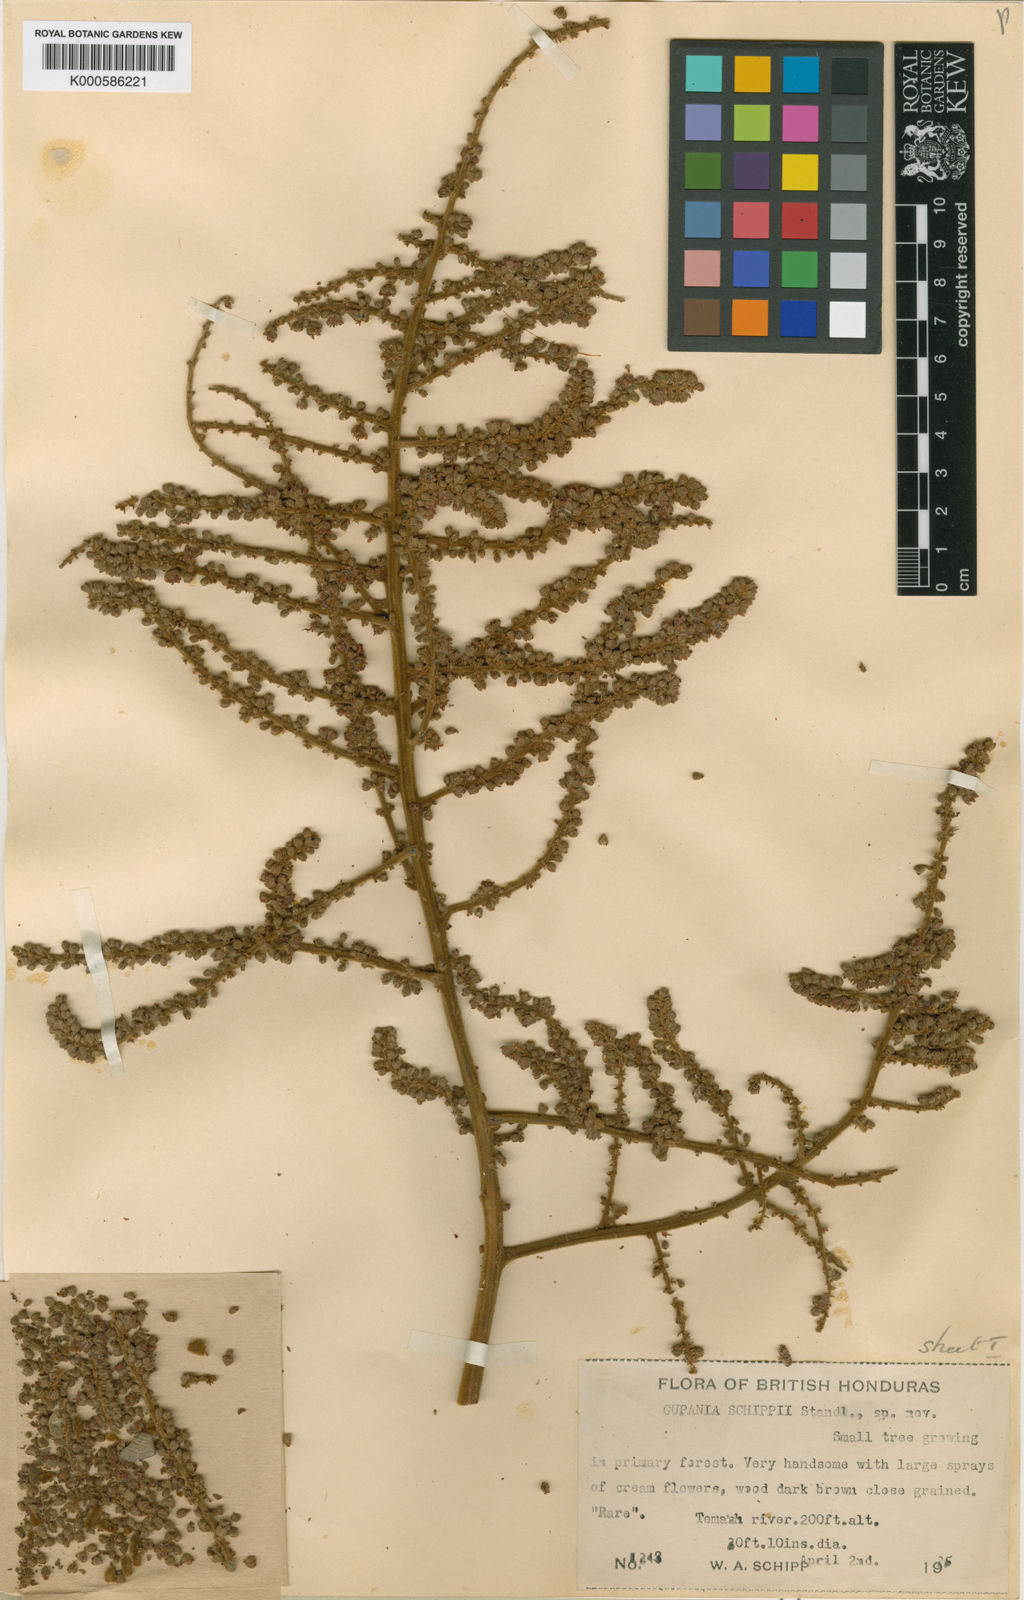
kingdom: Plantae
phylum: Tracheophyta
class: Magnoliopsida
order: Sapindales
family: Sapindaceae
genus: Cupania
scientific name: Cupania spectabilis
